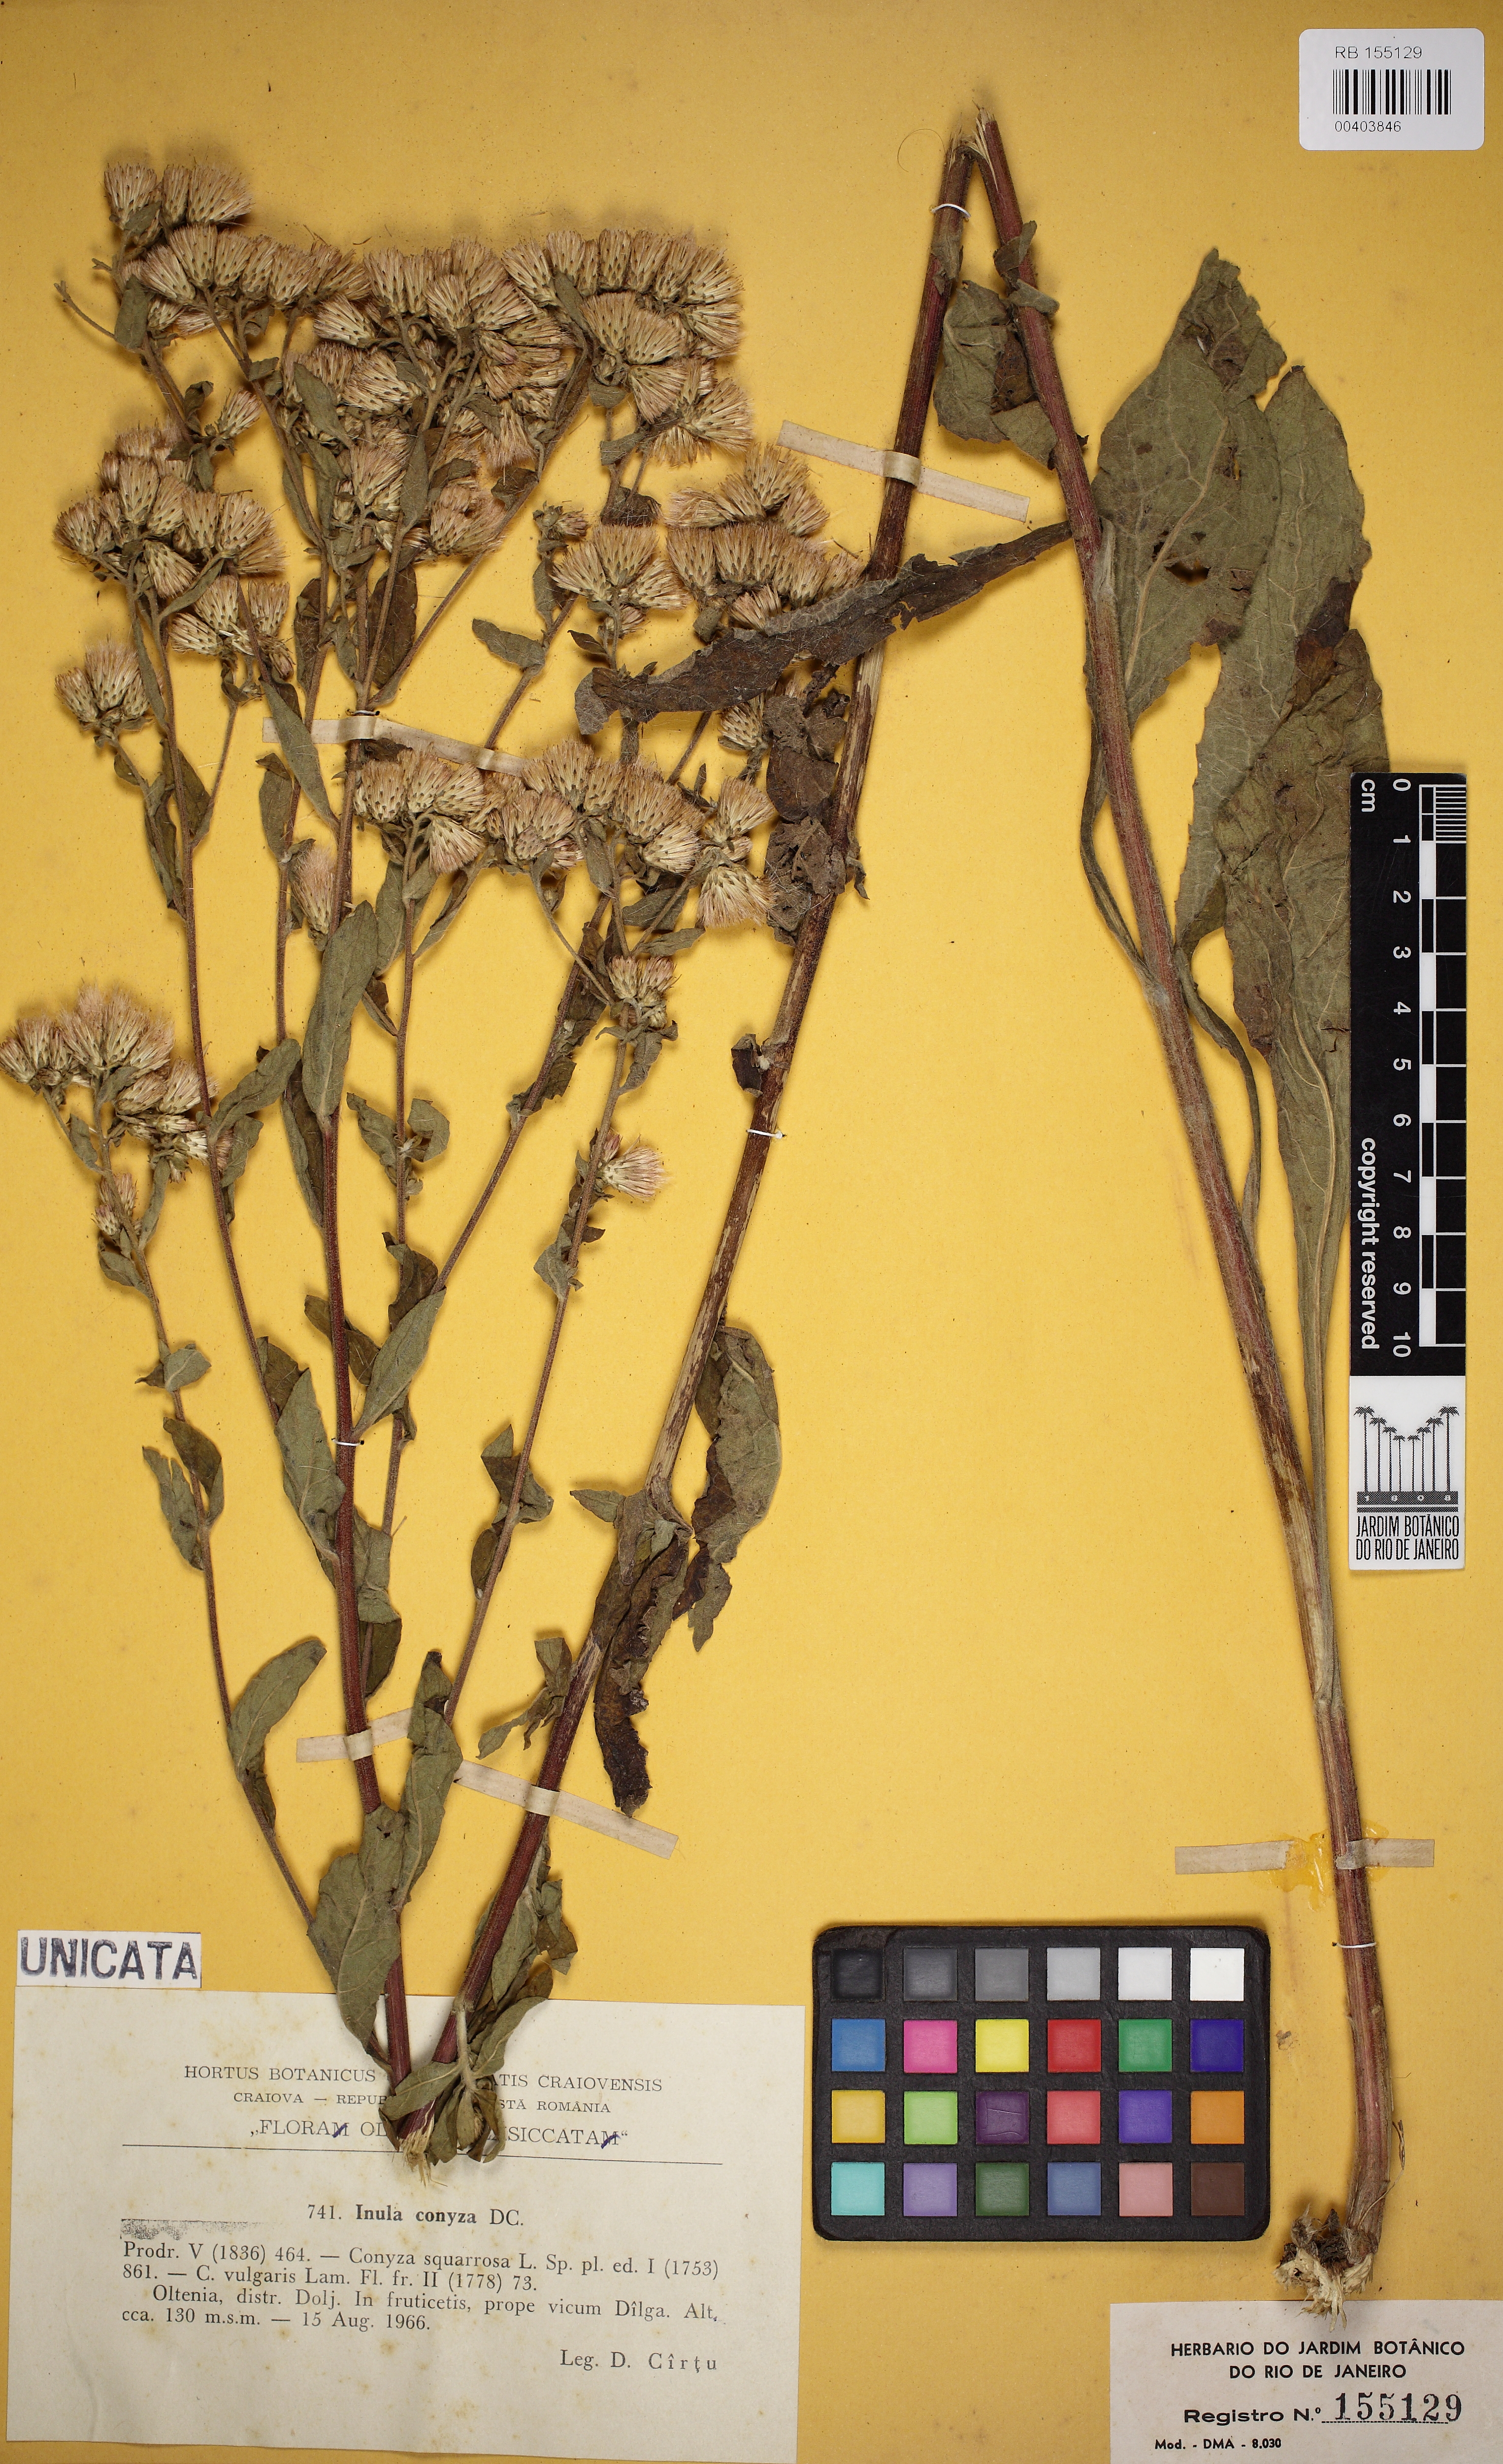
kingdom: Plantae
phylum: Tracheophyta
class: Magnoliopsida
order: Asterales
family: Asteraceae
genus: Pentanema
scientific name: Pentanema squarrosum
